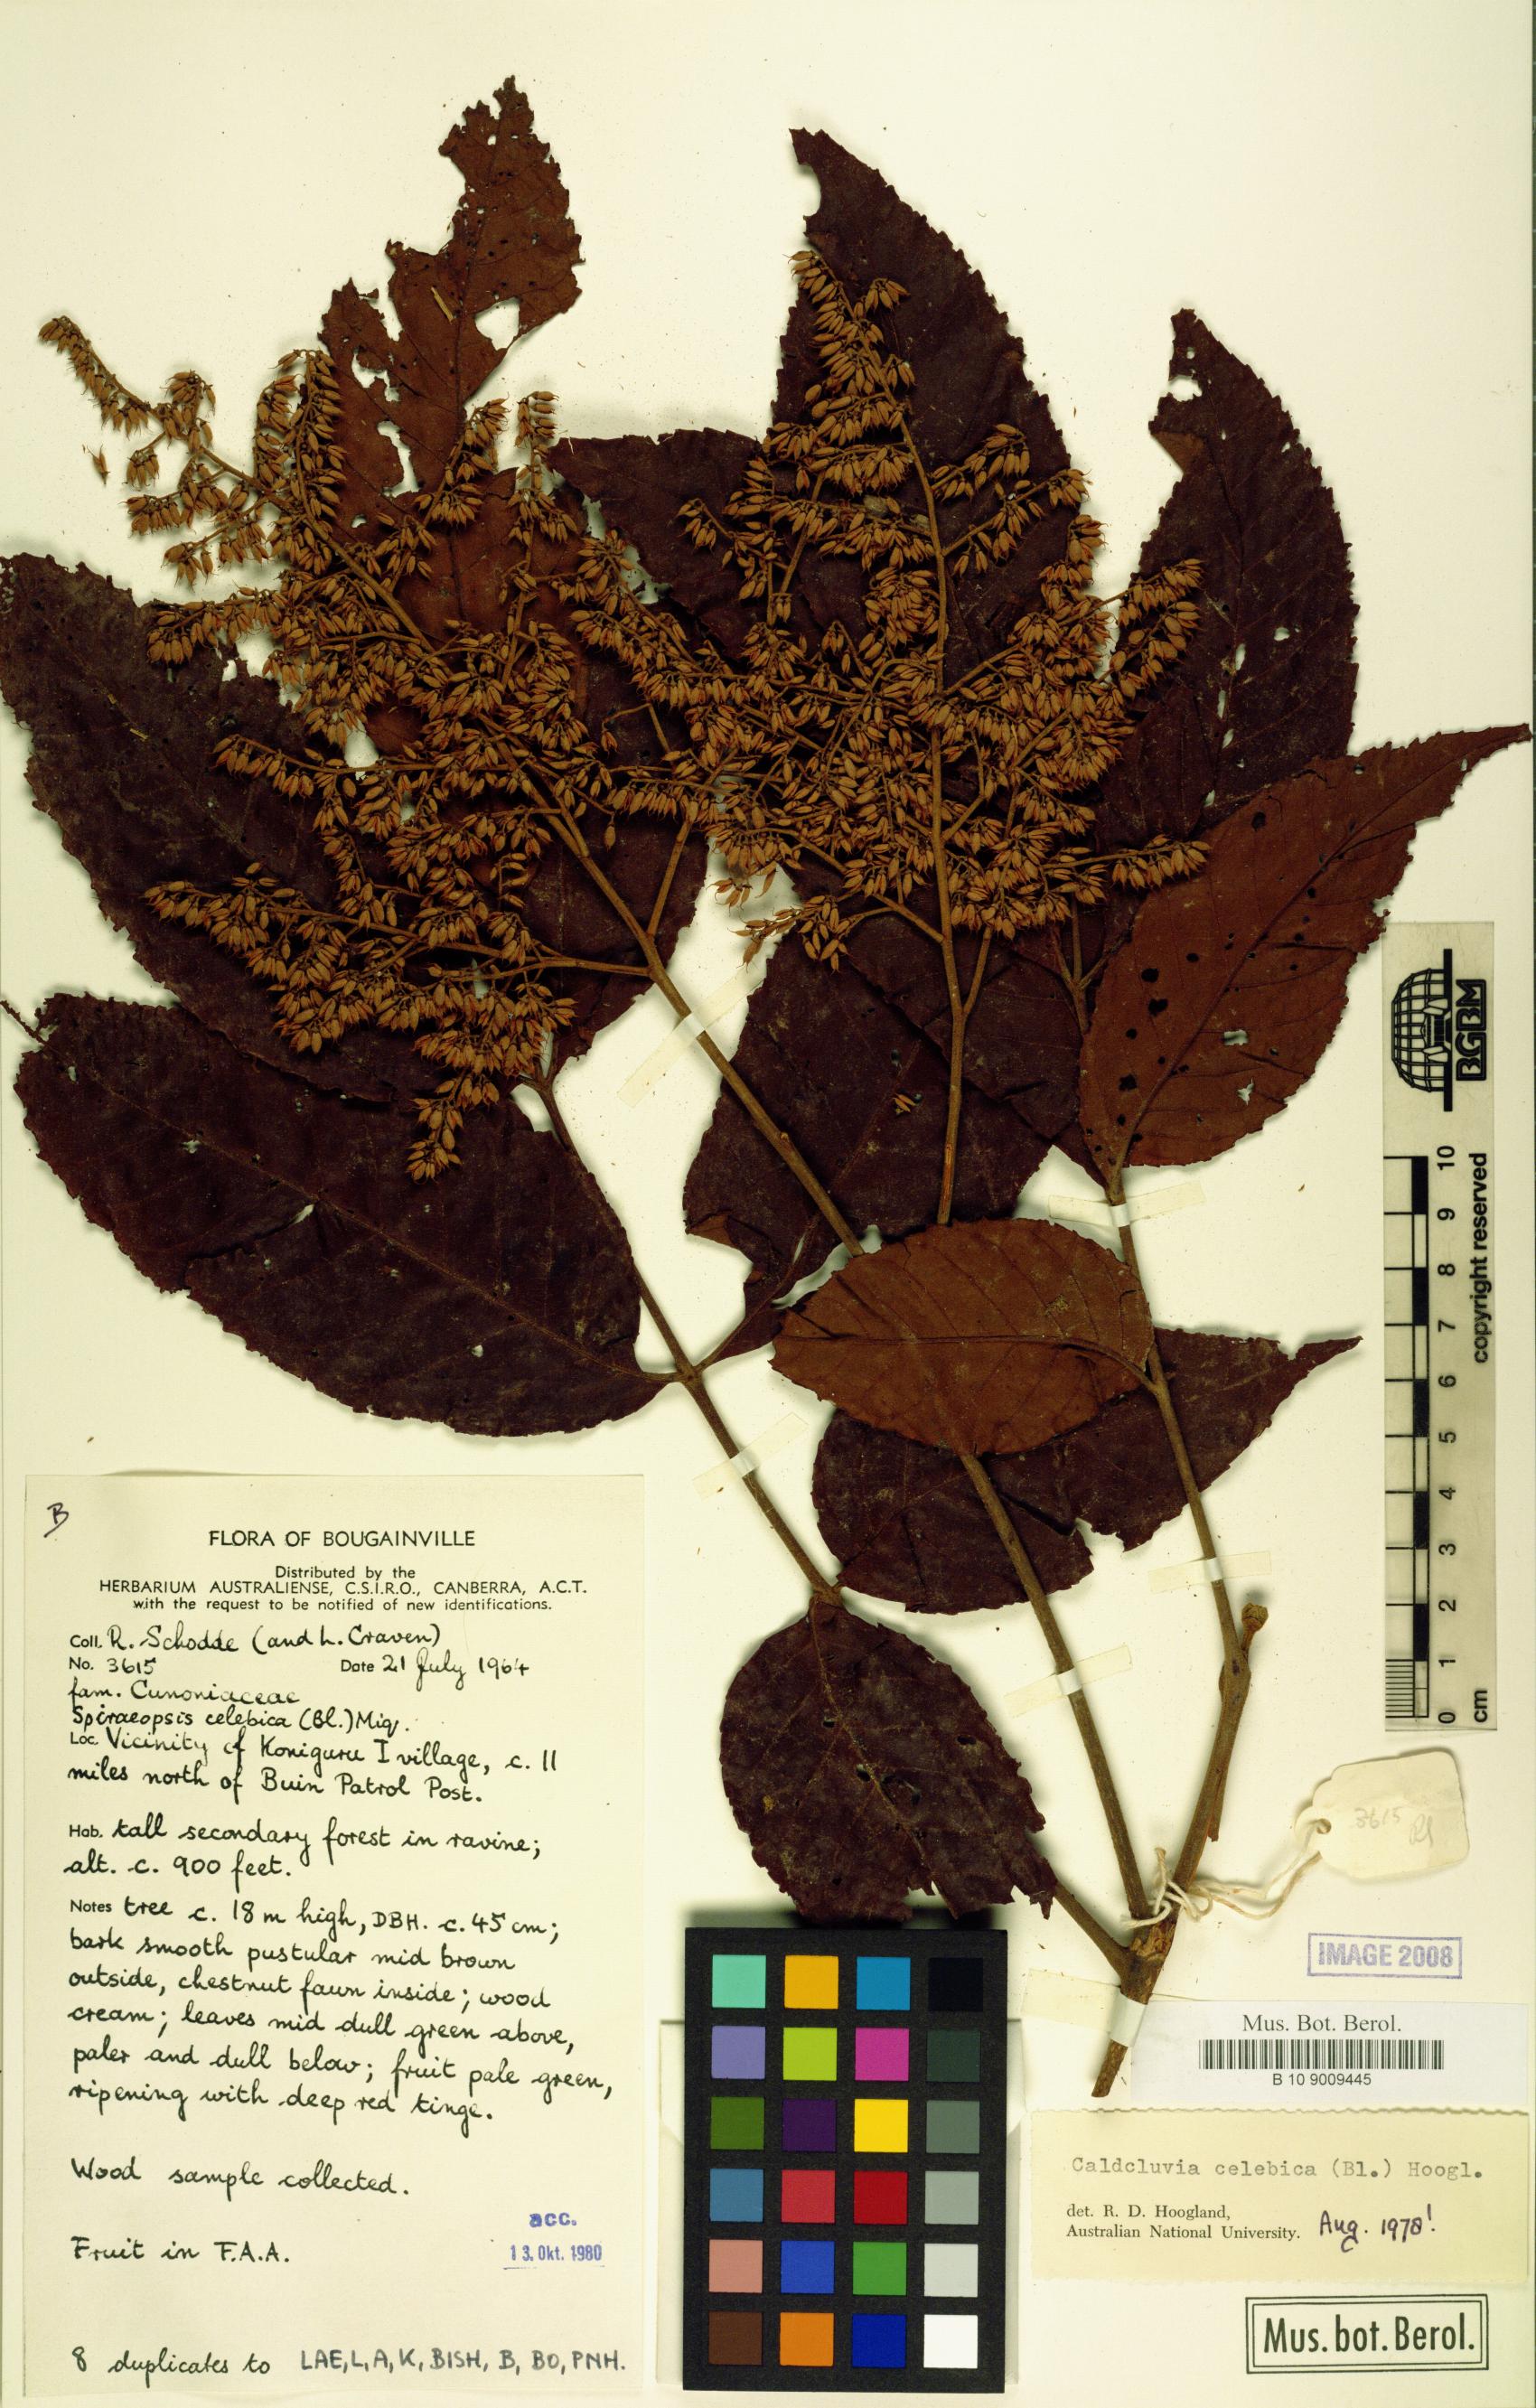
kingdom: Plantae
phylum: Tracheophyta
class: Magnoliopsida
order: Oxalidales
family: Cunoniaceae
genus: Ackama
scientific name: Ackama celebica
